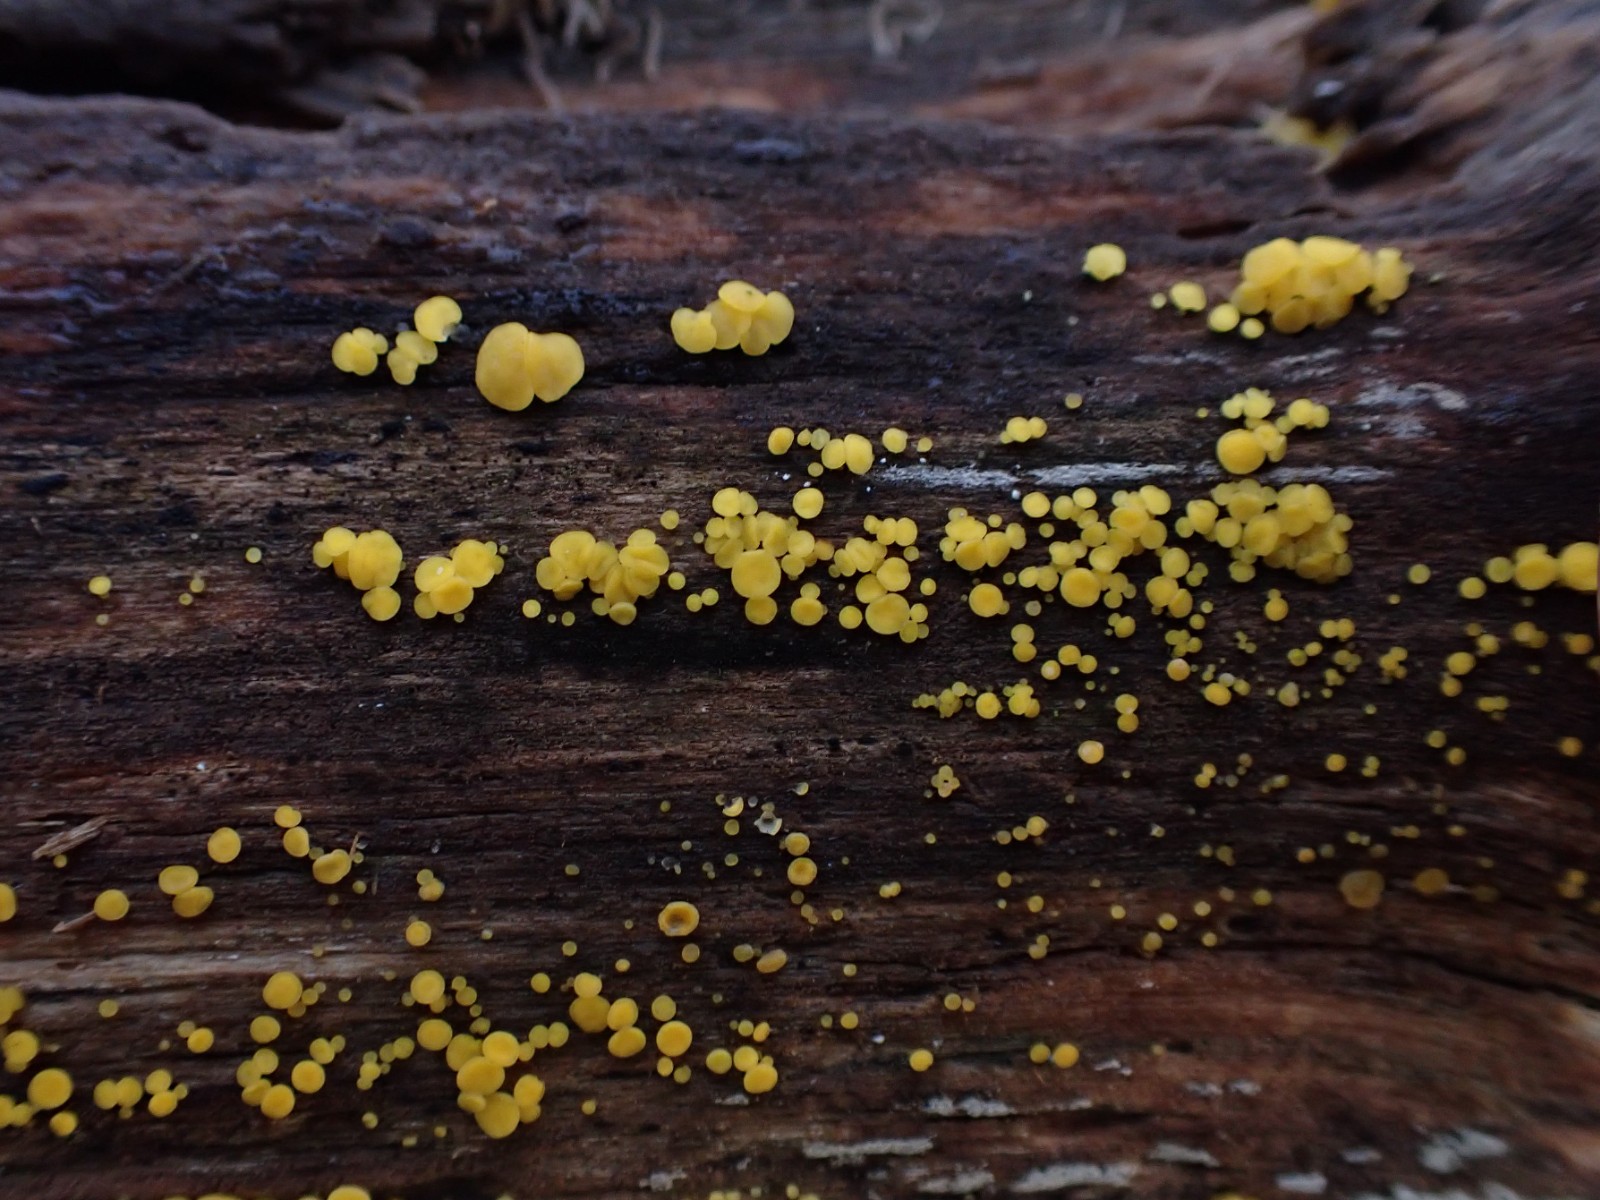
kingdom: Fungi
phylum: Ascomycota
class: Leotiomycetes
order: Helotiales
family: Pezizellaceae
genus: Calycina
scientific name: Calycina citrina
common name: almindelig gulskive
